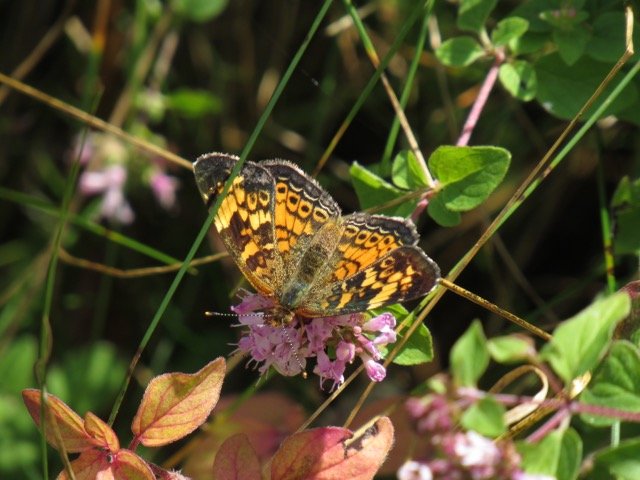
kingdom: Animalia
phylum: Arthropoda
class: Insecta
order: Lepidoptera
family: Nymphalidae
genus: Phyciodes
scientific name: Phyciodes tharos
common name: Pearl Crescent
